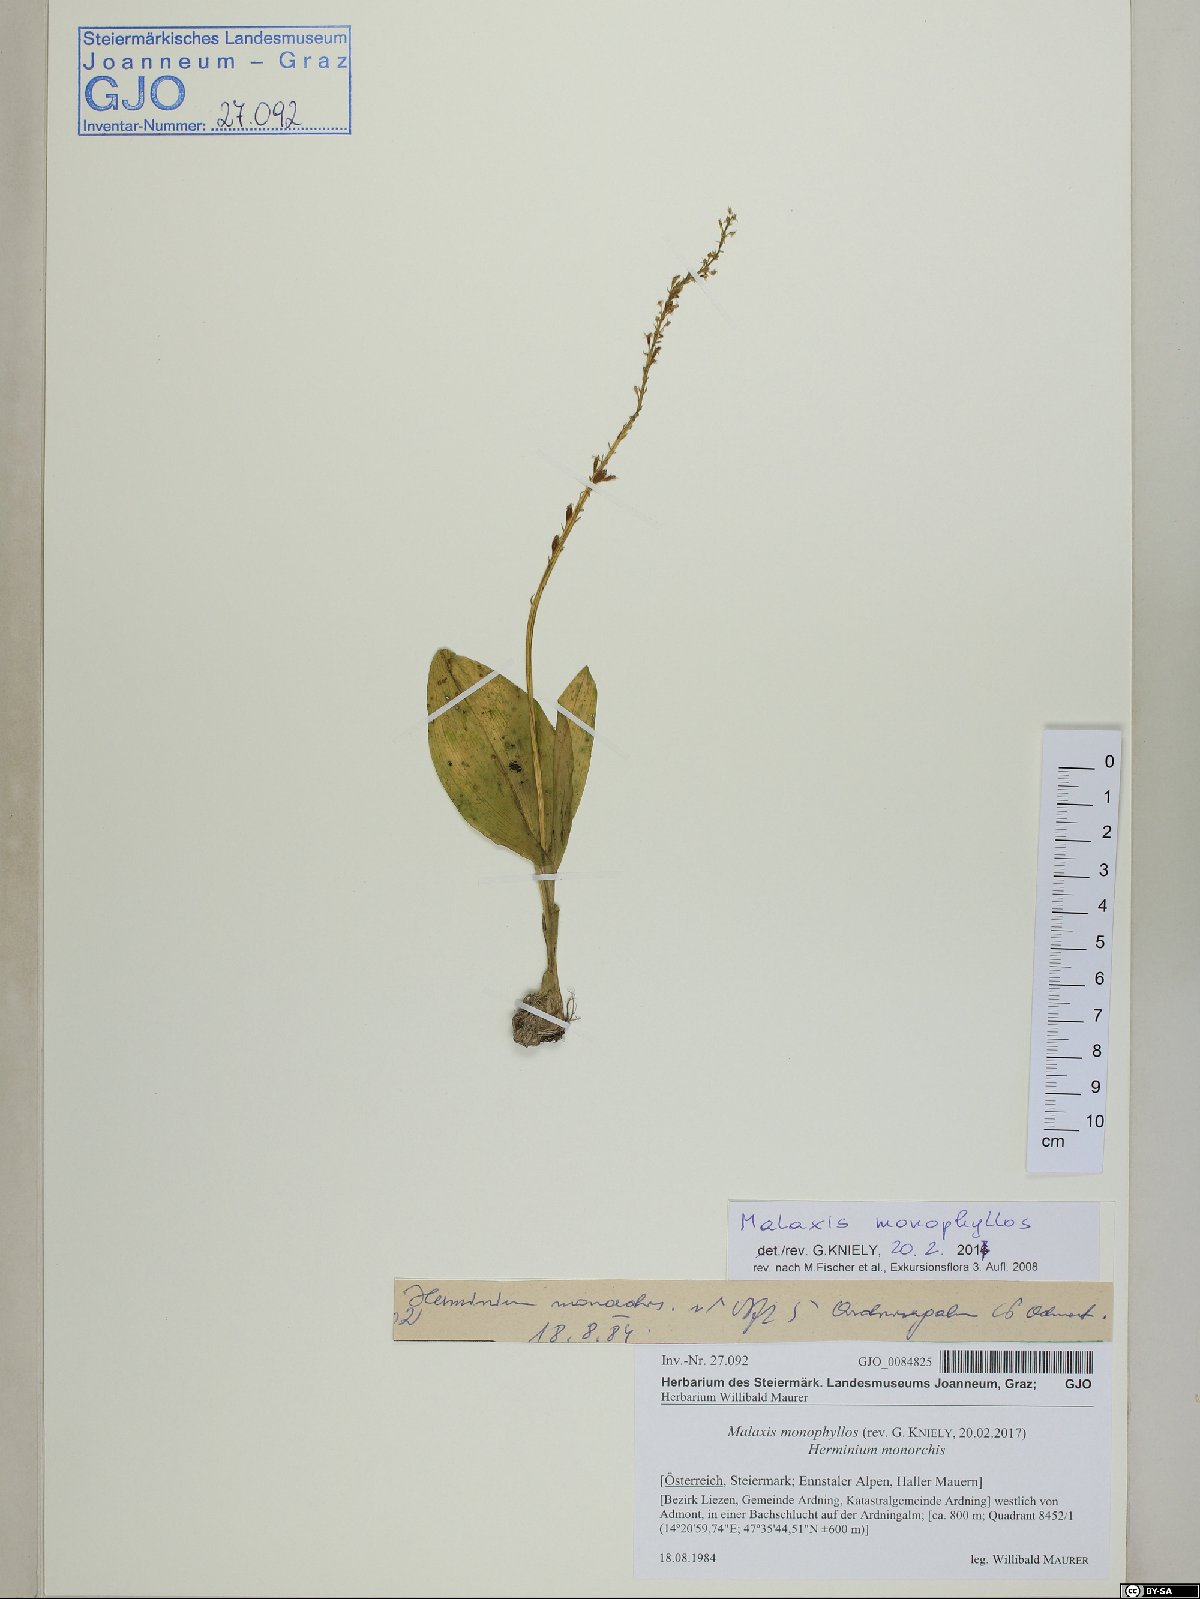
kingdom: Plantae
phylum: Tracheophyta
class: Liliopsida
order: Asparagales
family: Orchidaceae
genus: Malaxis
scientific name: Malaxis monophyllos
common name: White adder's-mouth
